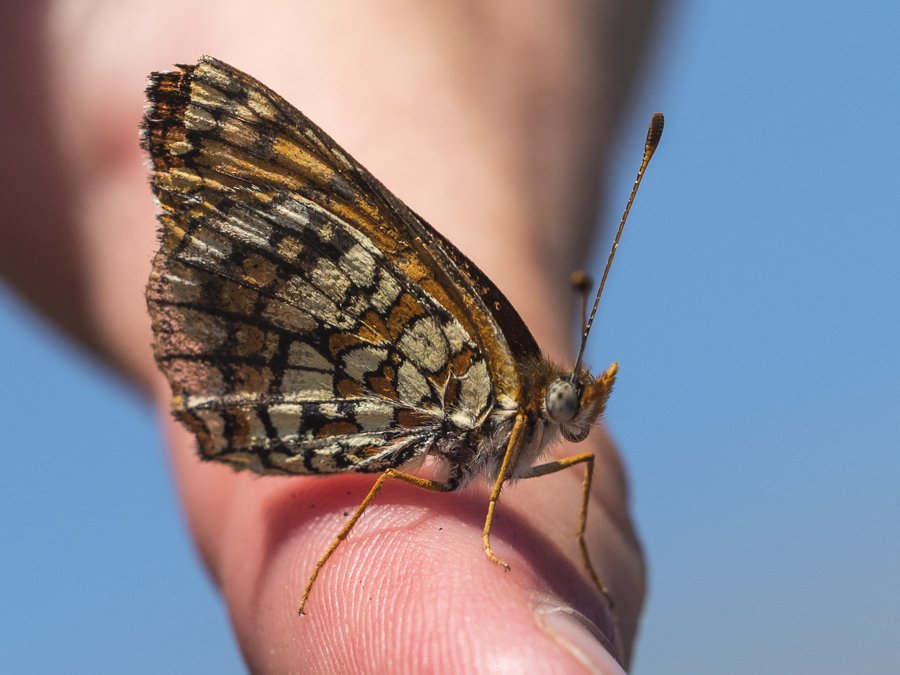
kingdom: Animalia
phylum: Arthropoda
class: Insecta
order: Lepidoptera
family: Nymphalidae
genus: Chlosyne
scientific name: Chlosyne acastus
